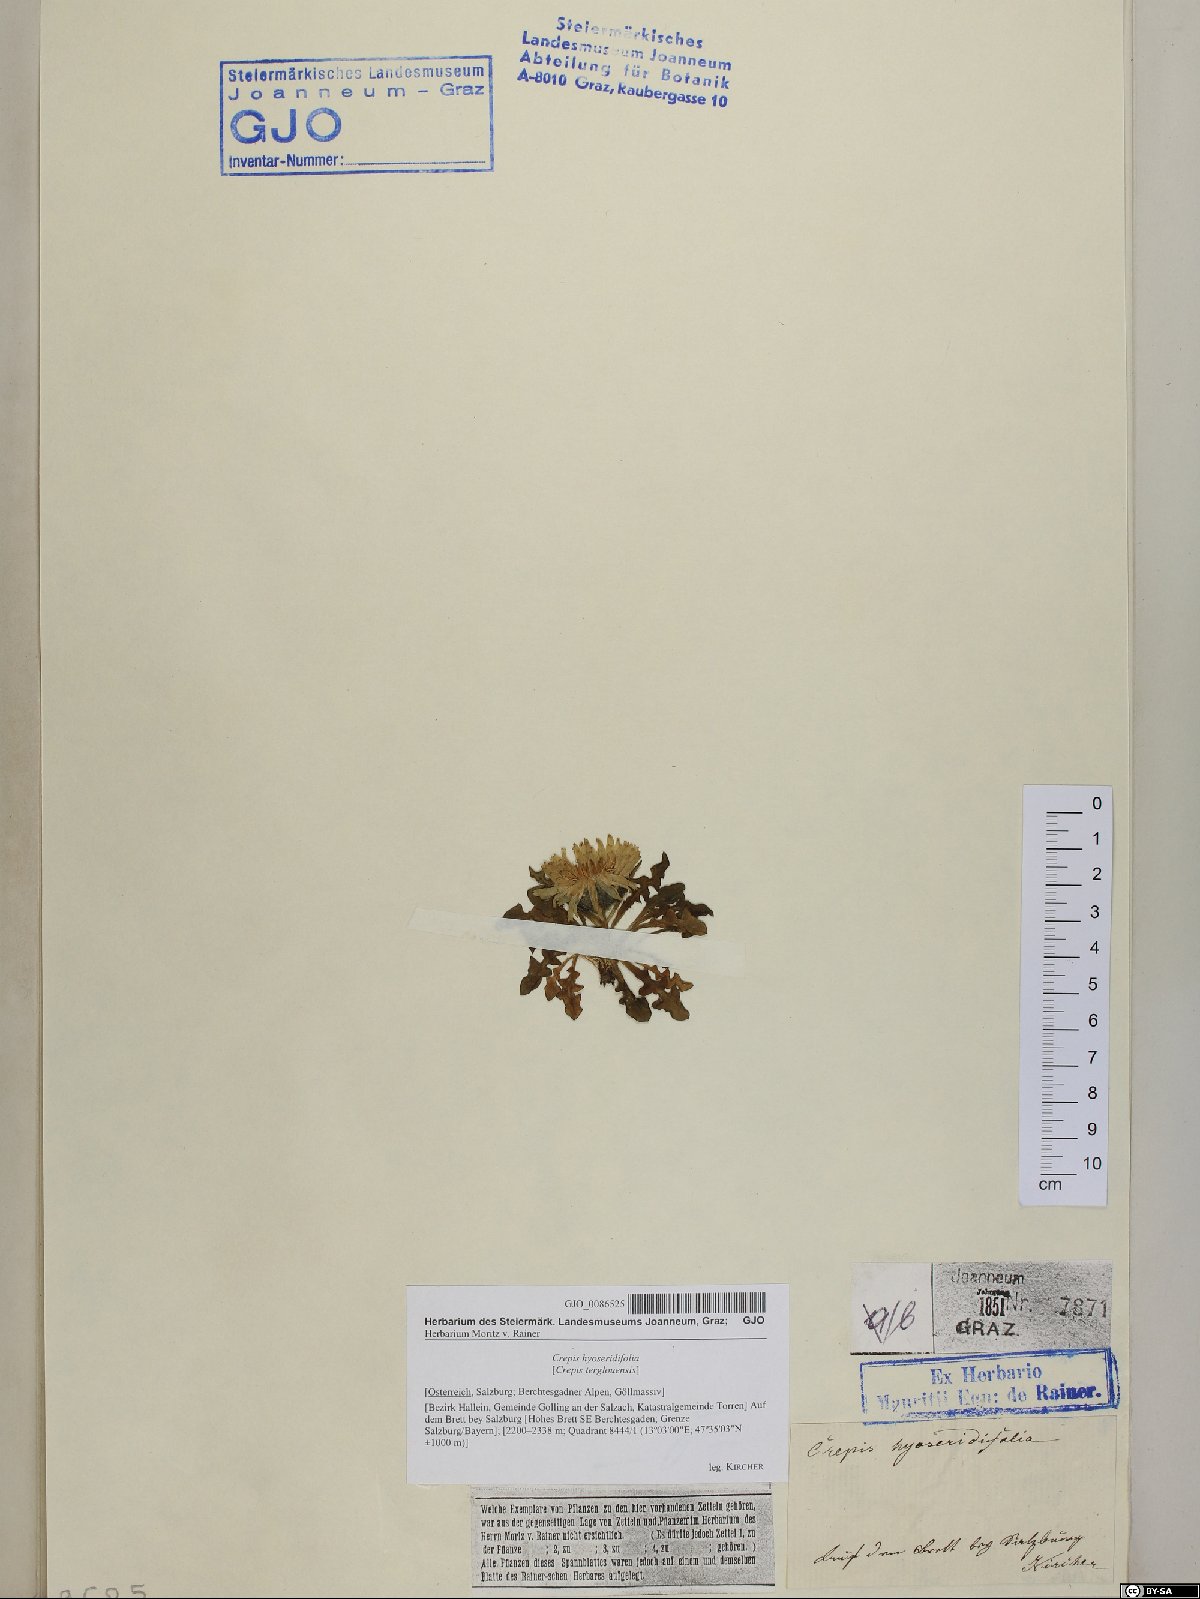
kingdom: Plantae
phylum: Tracheophyta
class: Magnoliopsida
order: Asterales
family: Asteraceae
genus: Crepis
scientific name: Crepis terglouensis
